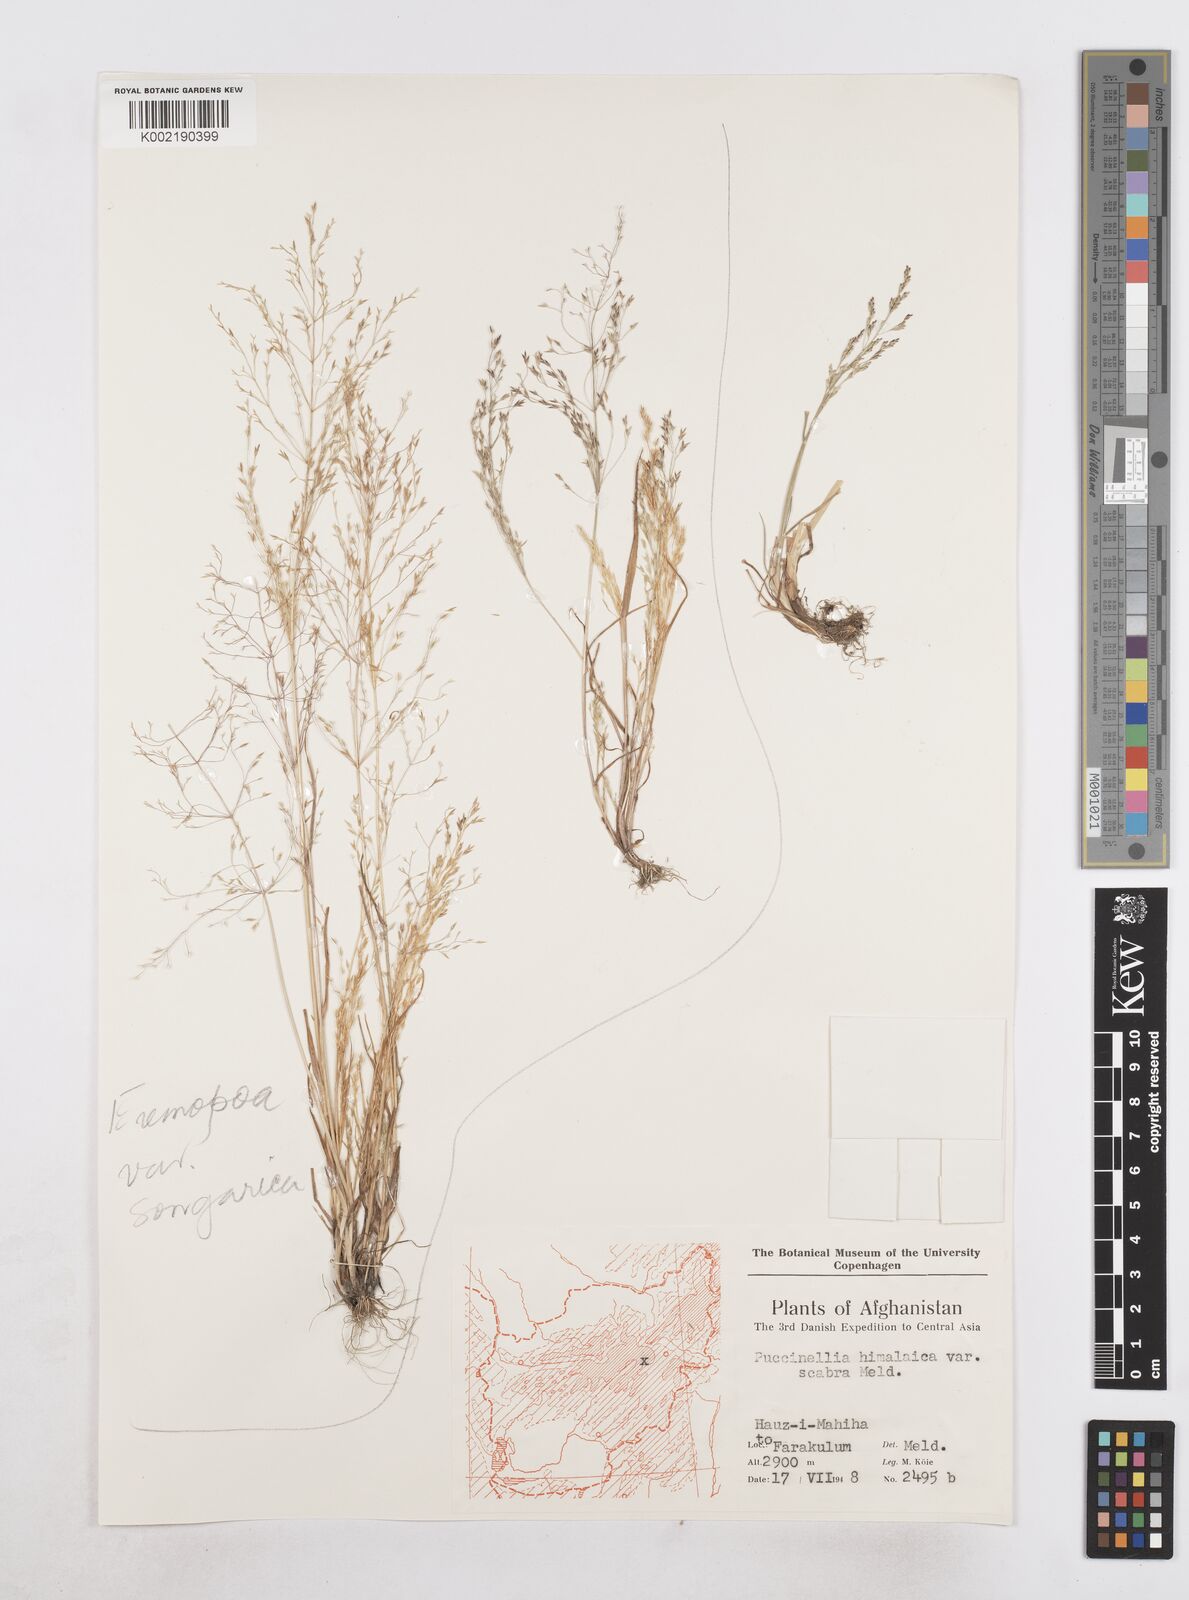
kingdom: Plantae
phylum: Tracheophyta
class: Liliopsida
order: Poales
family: Poaceae
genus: Poa
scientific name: Poa diaphora
